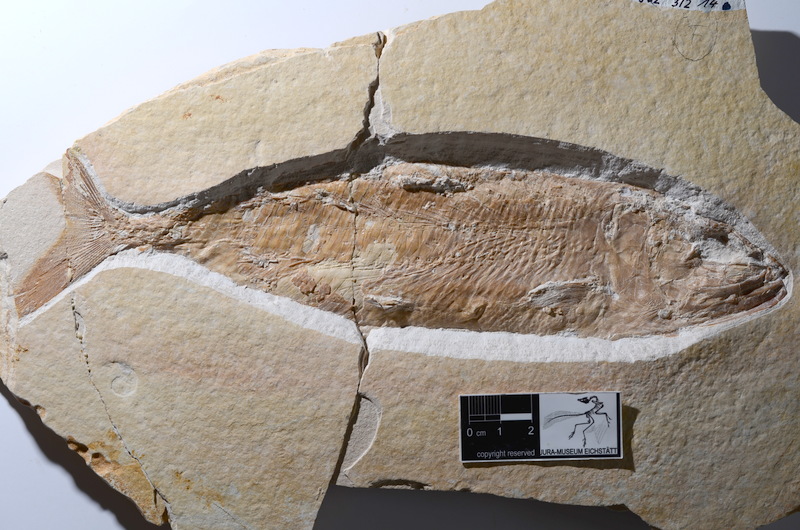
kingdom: Animalia
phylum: Chordata
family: Ankylophoridae
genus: Siemensichthys
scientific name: Siemensichthys macrocephalus
